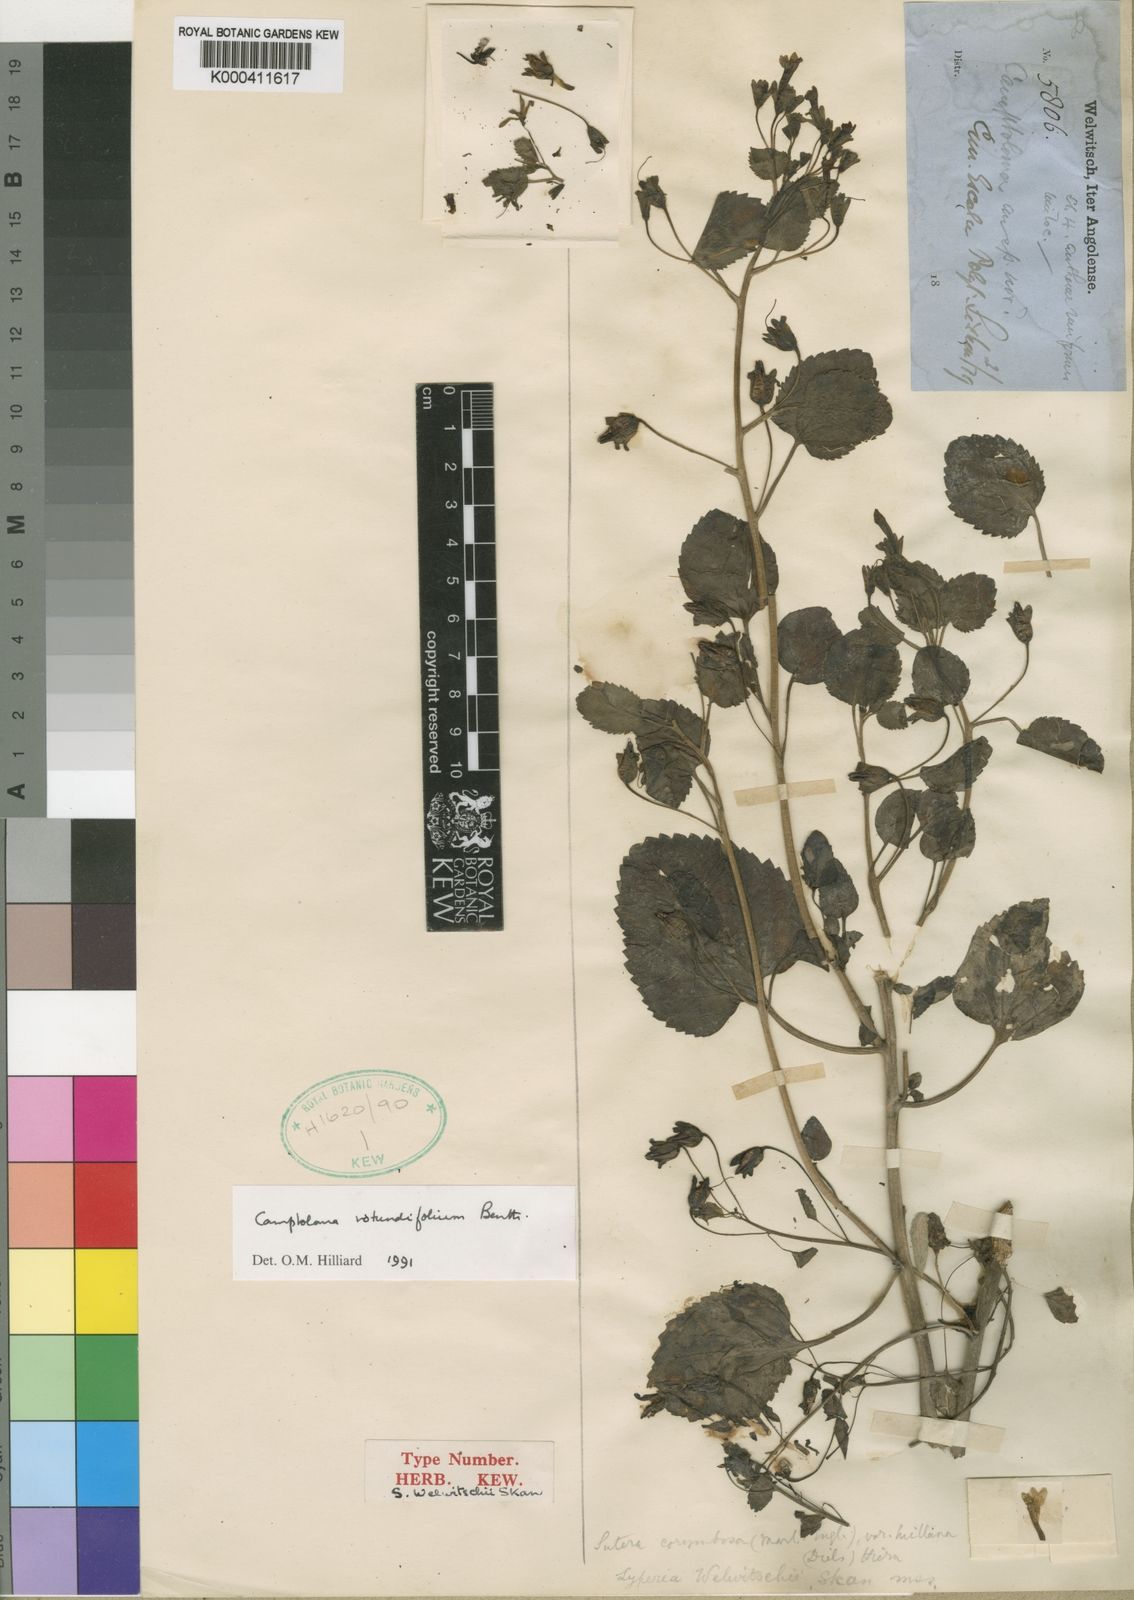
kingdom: Plantae
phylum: Tracheophyta
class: Magnoliopsida
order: Lamiales
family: Scrophulariaceae
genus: Camptoloma
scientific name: Camptoloma rotundifolium
